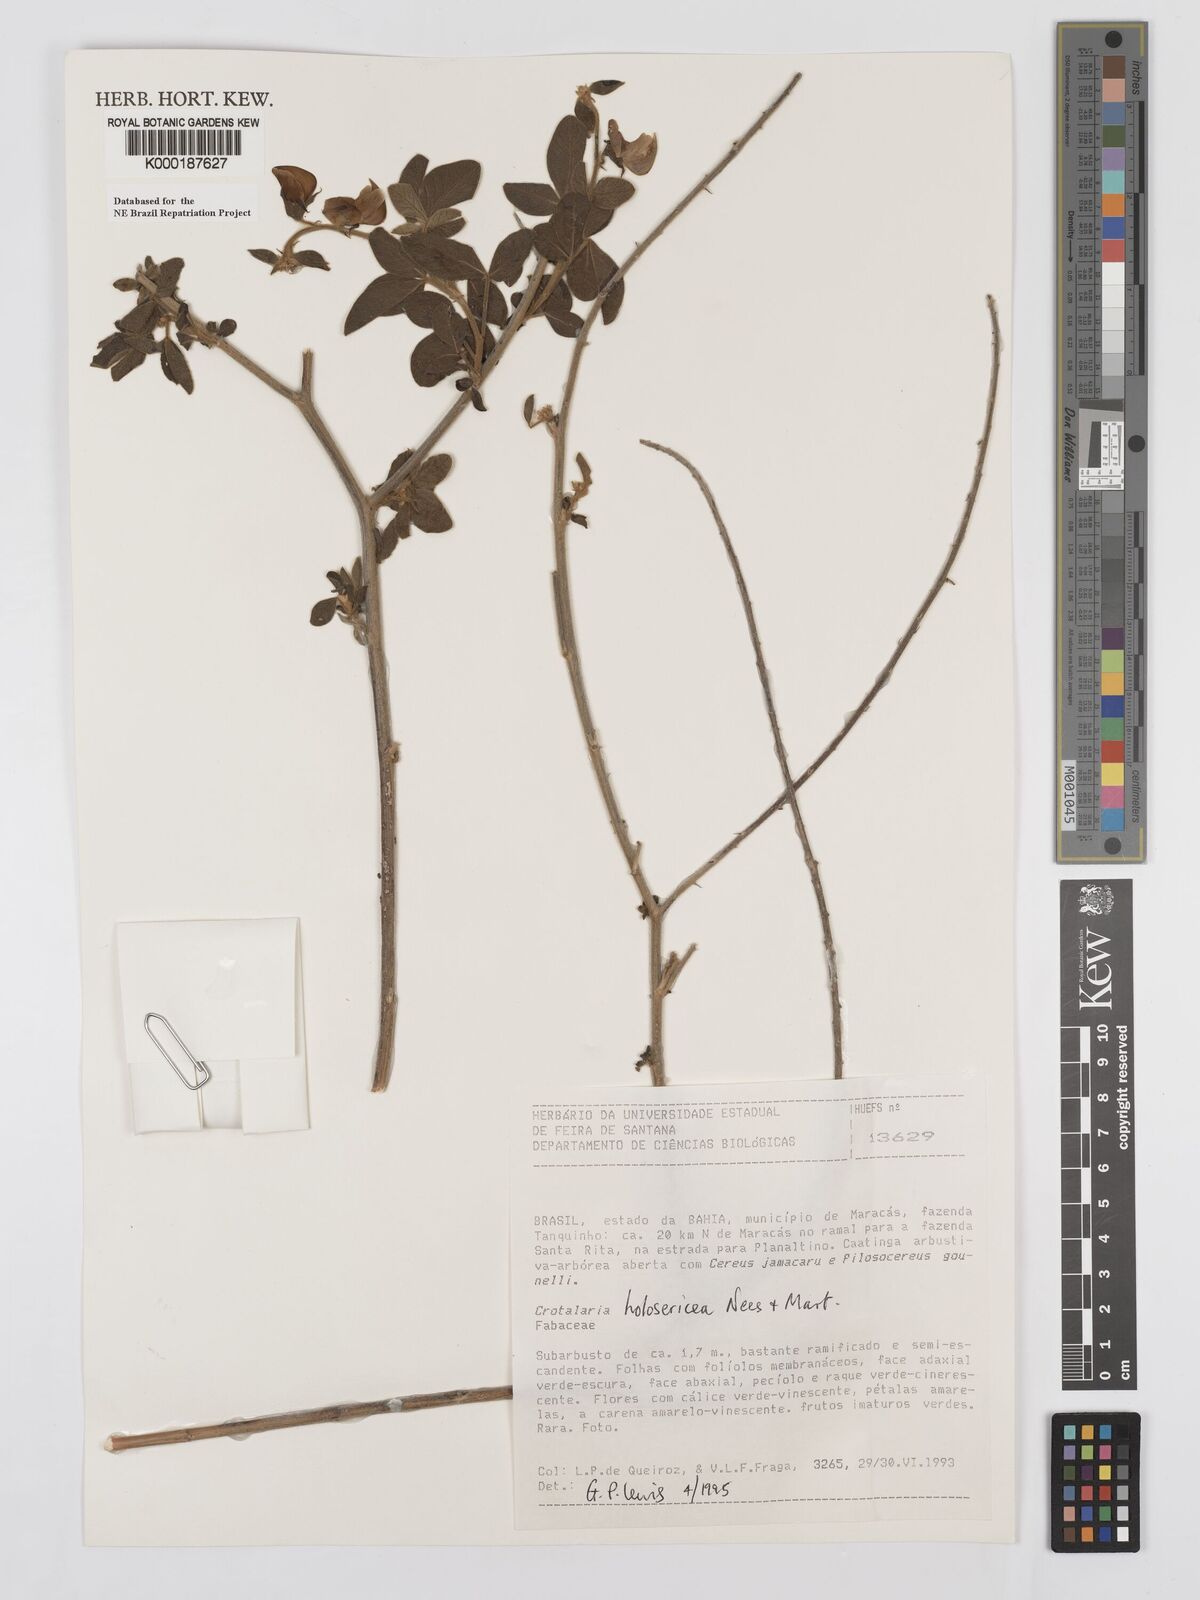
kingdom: Plantae
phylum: Tracheophyta
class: Magnoliopsida
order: Fabales
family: Fabaceae
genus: Crotalaria
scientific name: Crotalaria holosericea
